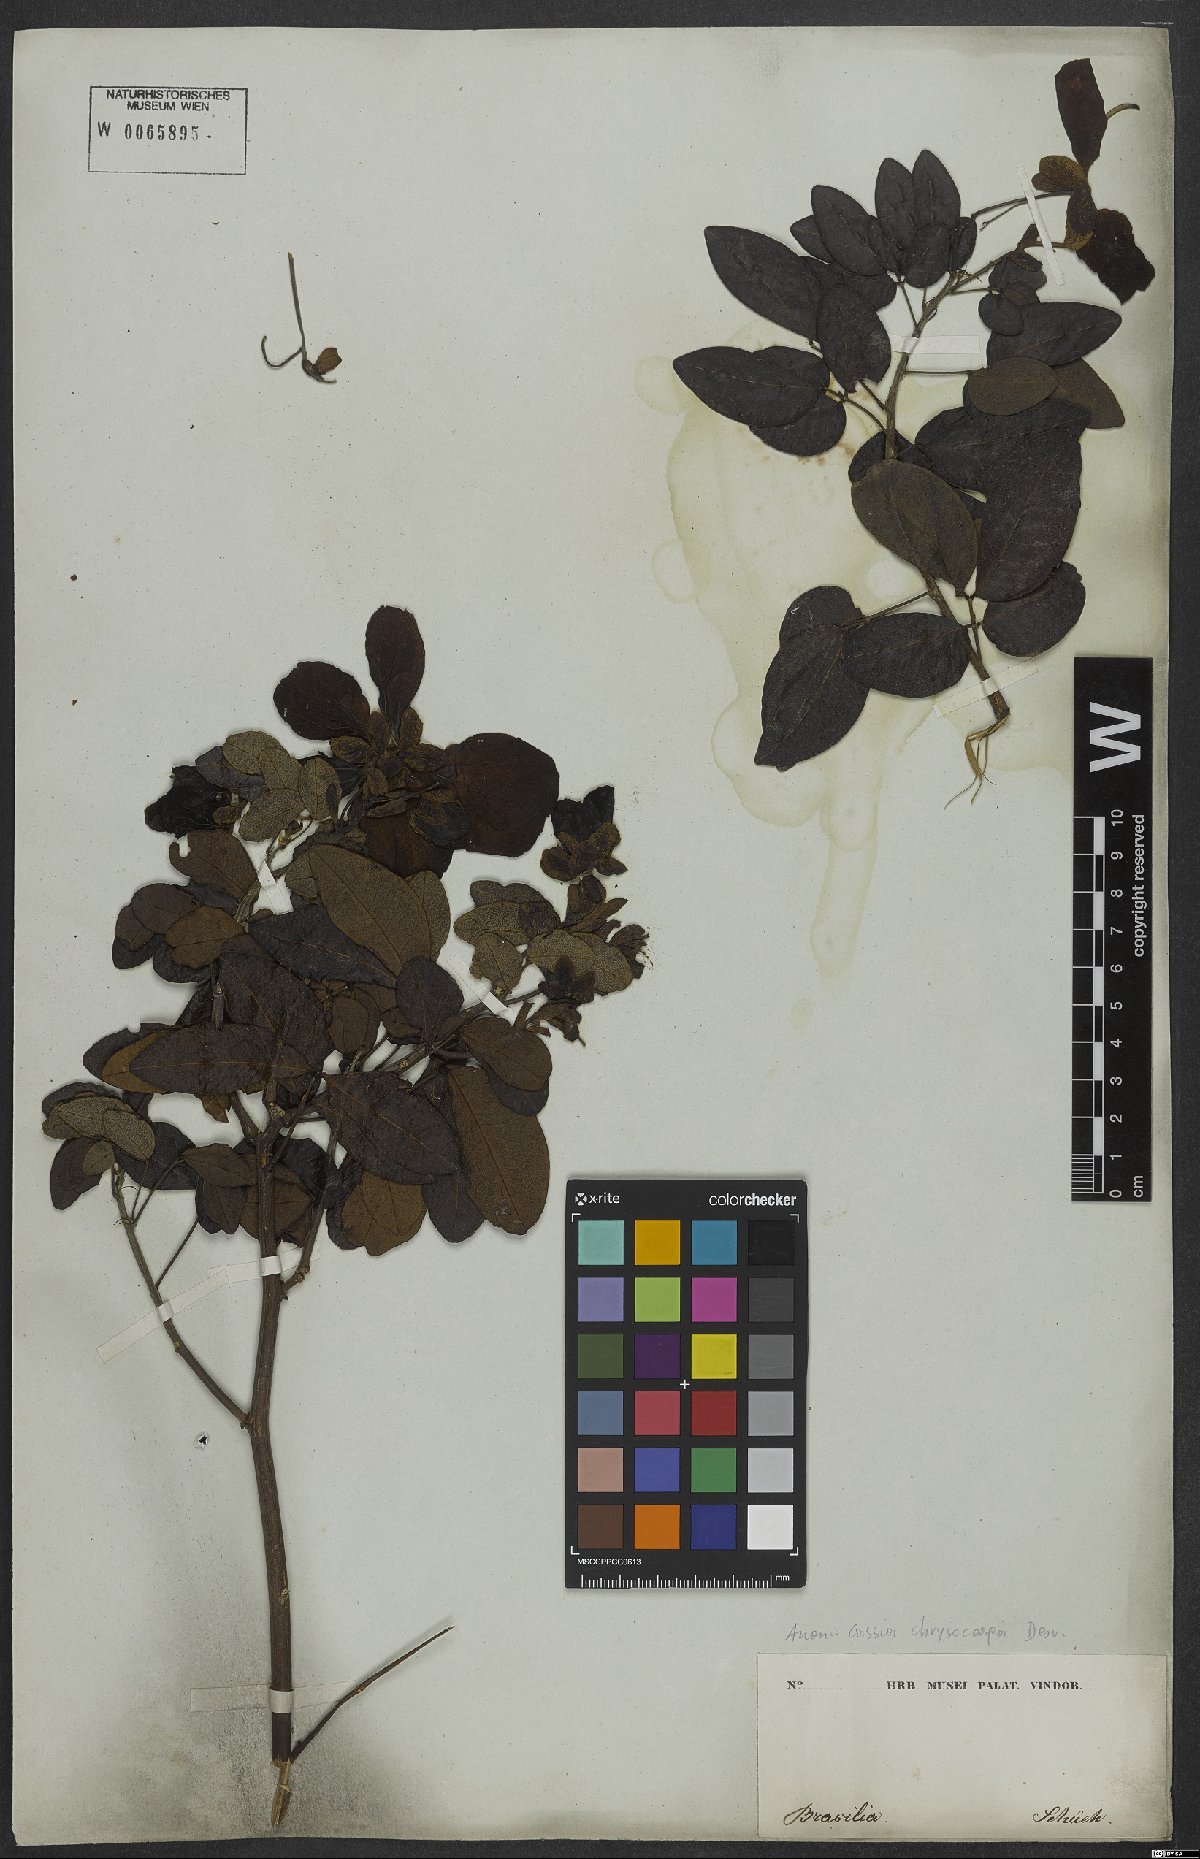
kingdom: Plantae
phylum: Tracheophyta
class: Magnoliopsida
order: Fabales
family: Fabaceae
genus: Senna
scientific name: Senna chrysocarpa
